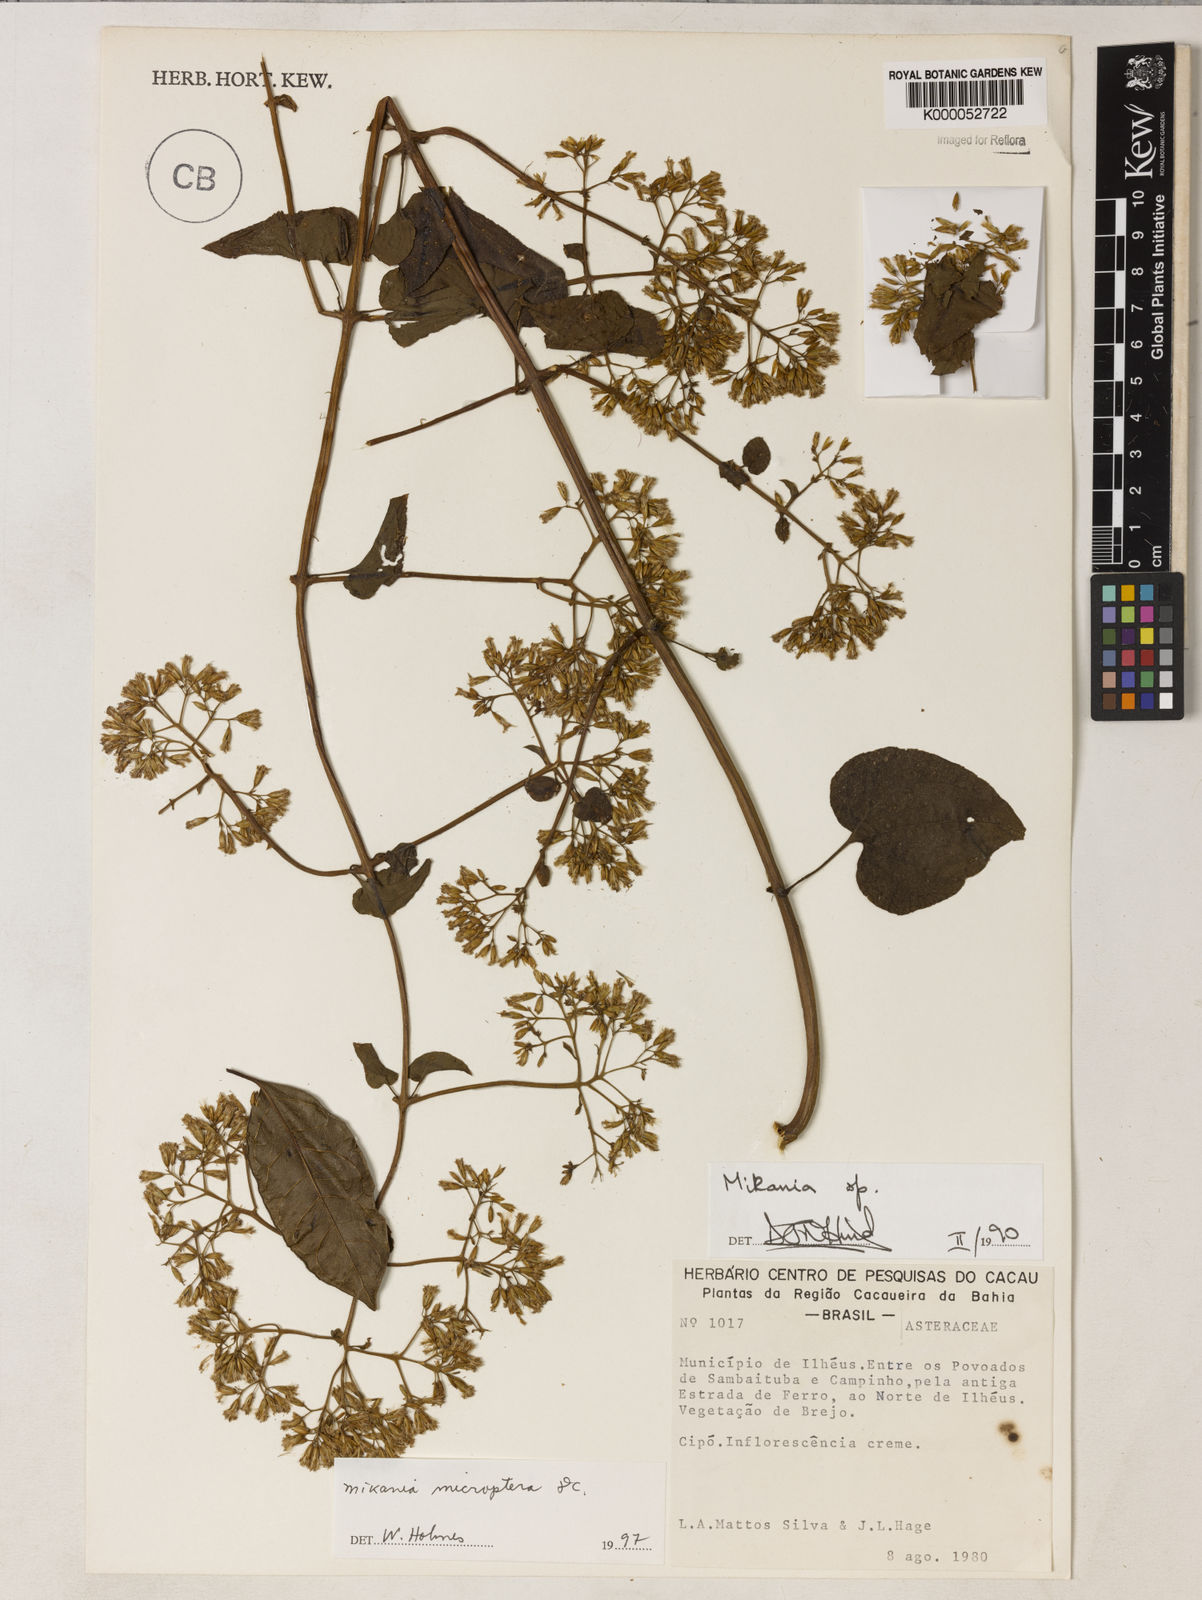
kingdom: Plantae
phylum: Tracheophyta
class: Magnoliopsida
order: Asterales
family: Asteraceae
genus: Mikania
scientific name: Mikania microptera
